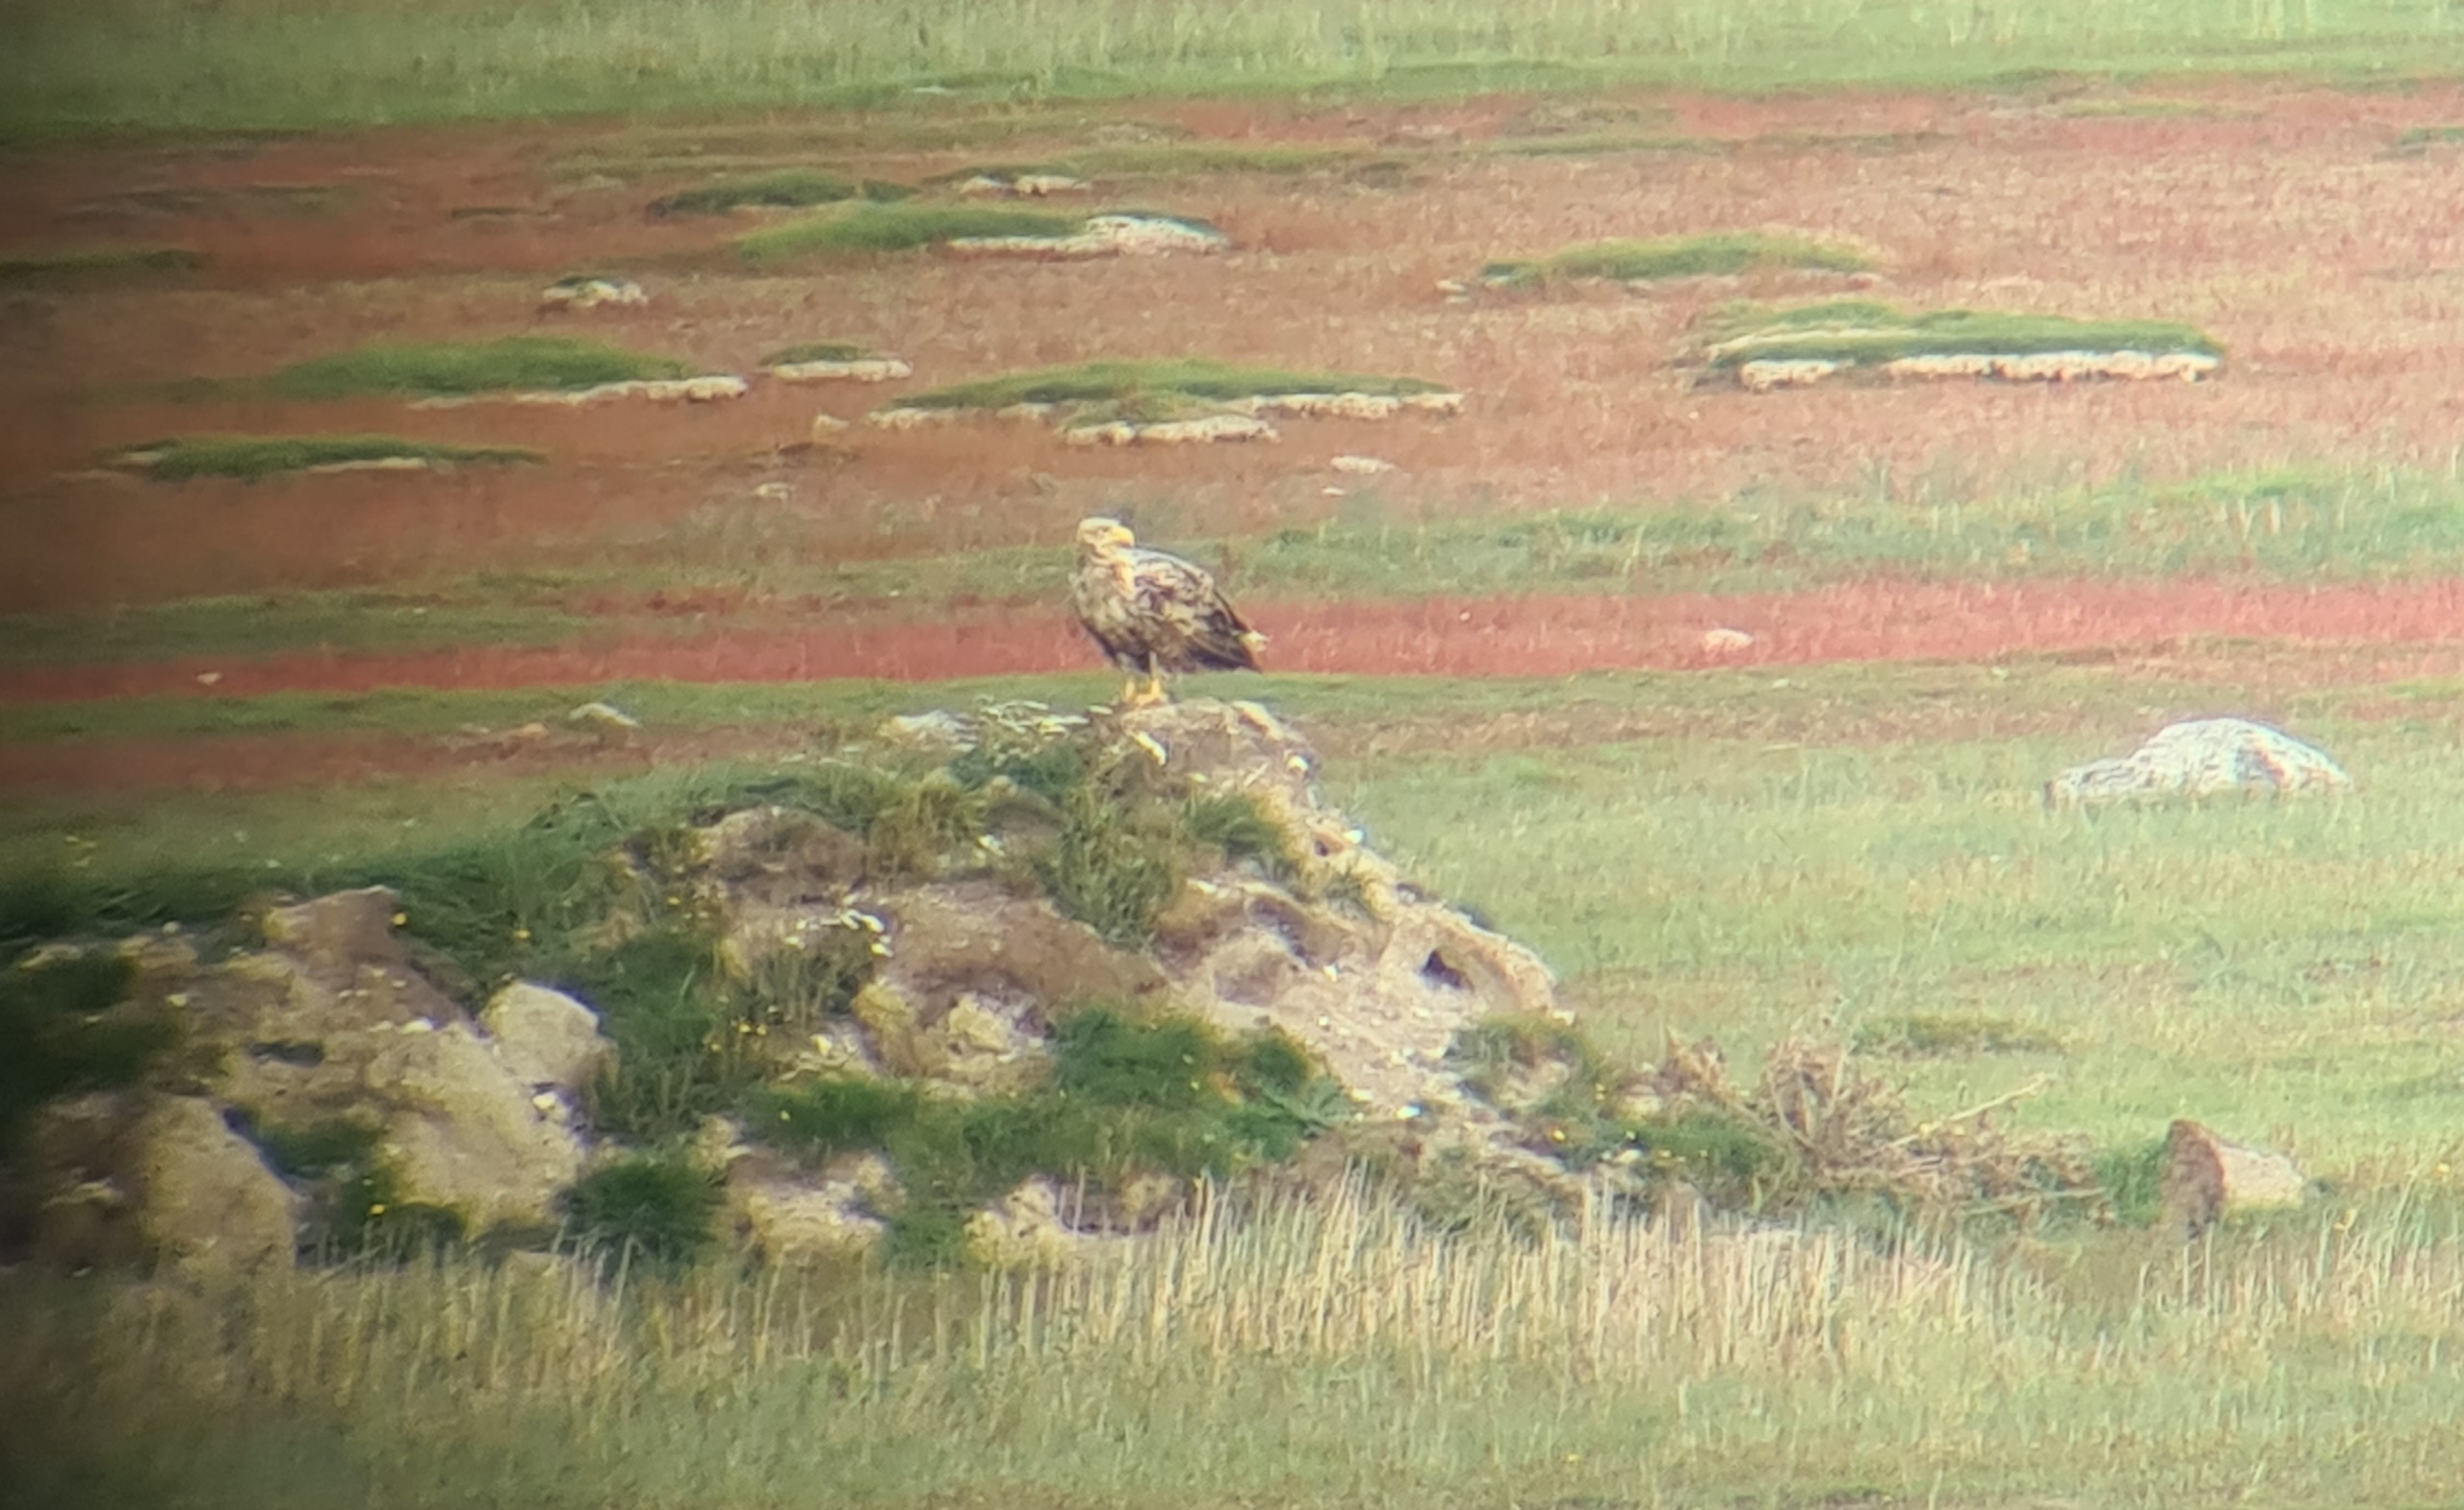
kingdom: Animalia
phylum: Chordata
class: Aves
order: Accipitriformes
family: Accipitridae
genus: Haliaeetus
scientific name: Haliaeetus albicilla
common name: Havørn
